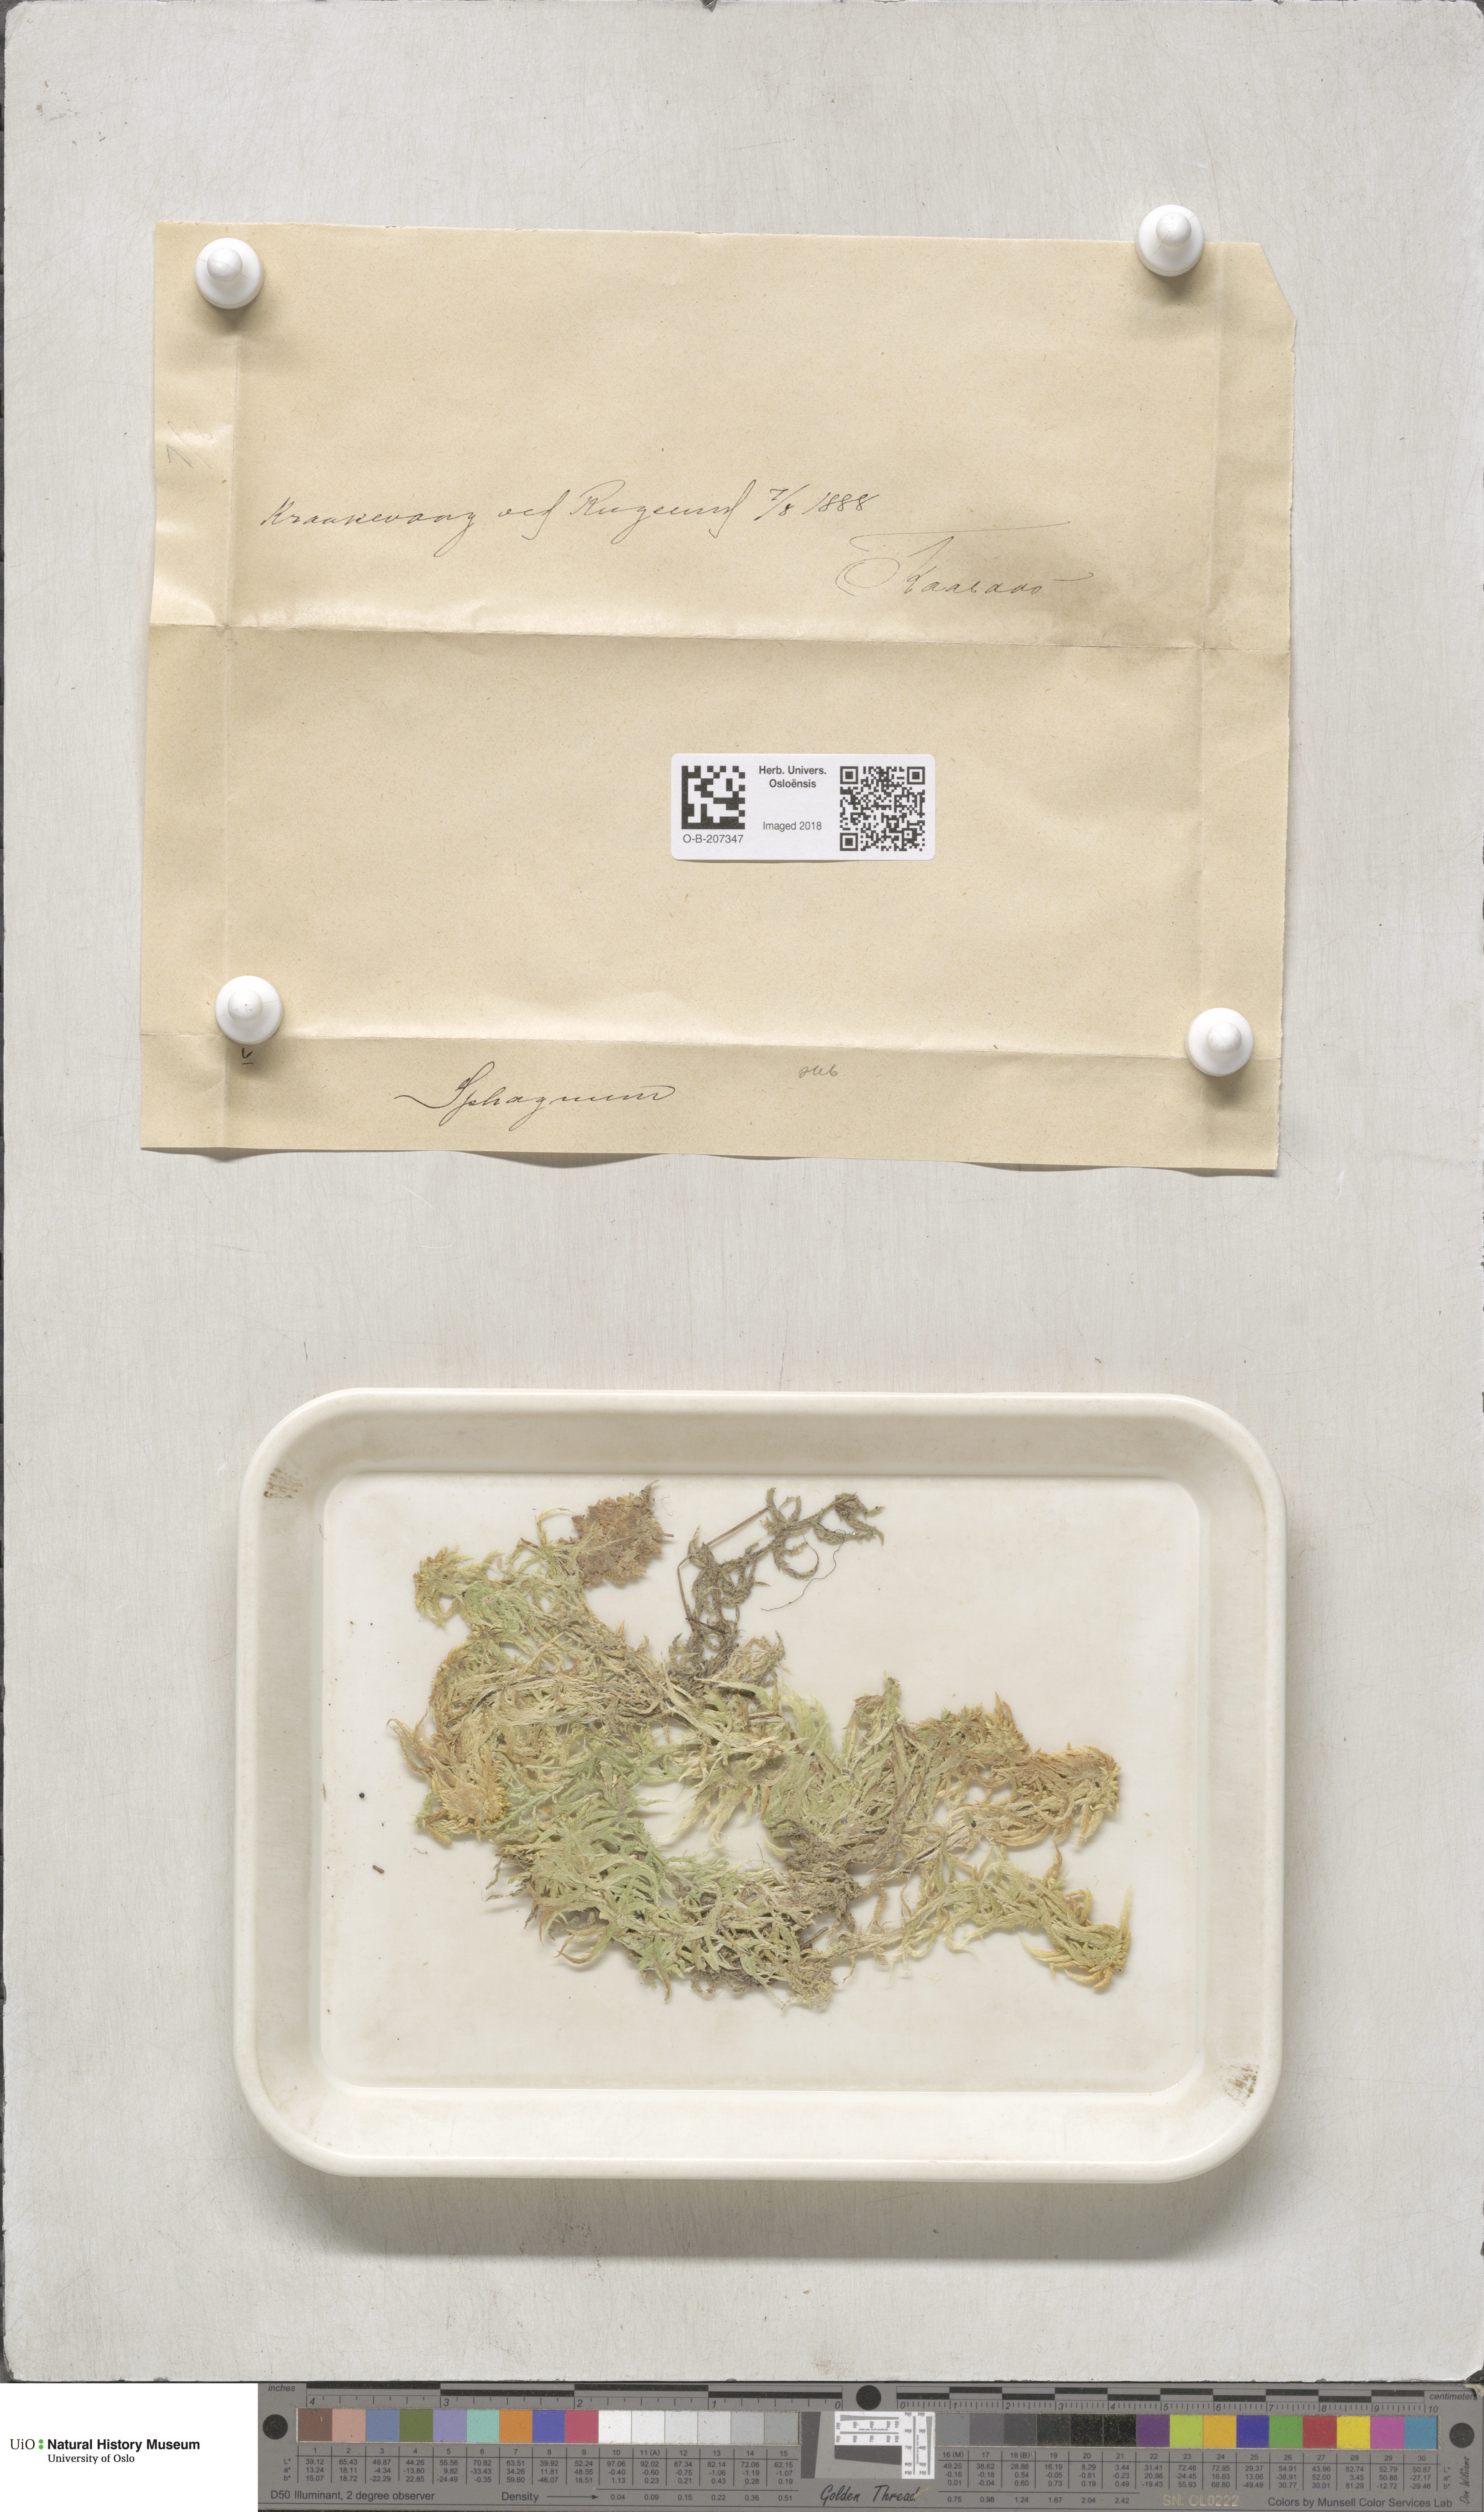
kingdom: Plantae
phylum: Bryophyta
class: Sphagnopsida
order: Sphagnales
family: Sphagnaceae
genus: Sphagnum
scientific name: Sphagnum subsecundum
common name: Orange peat moss
